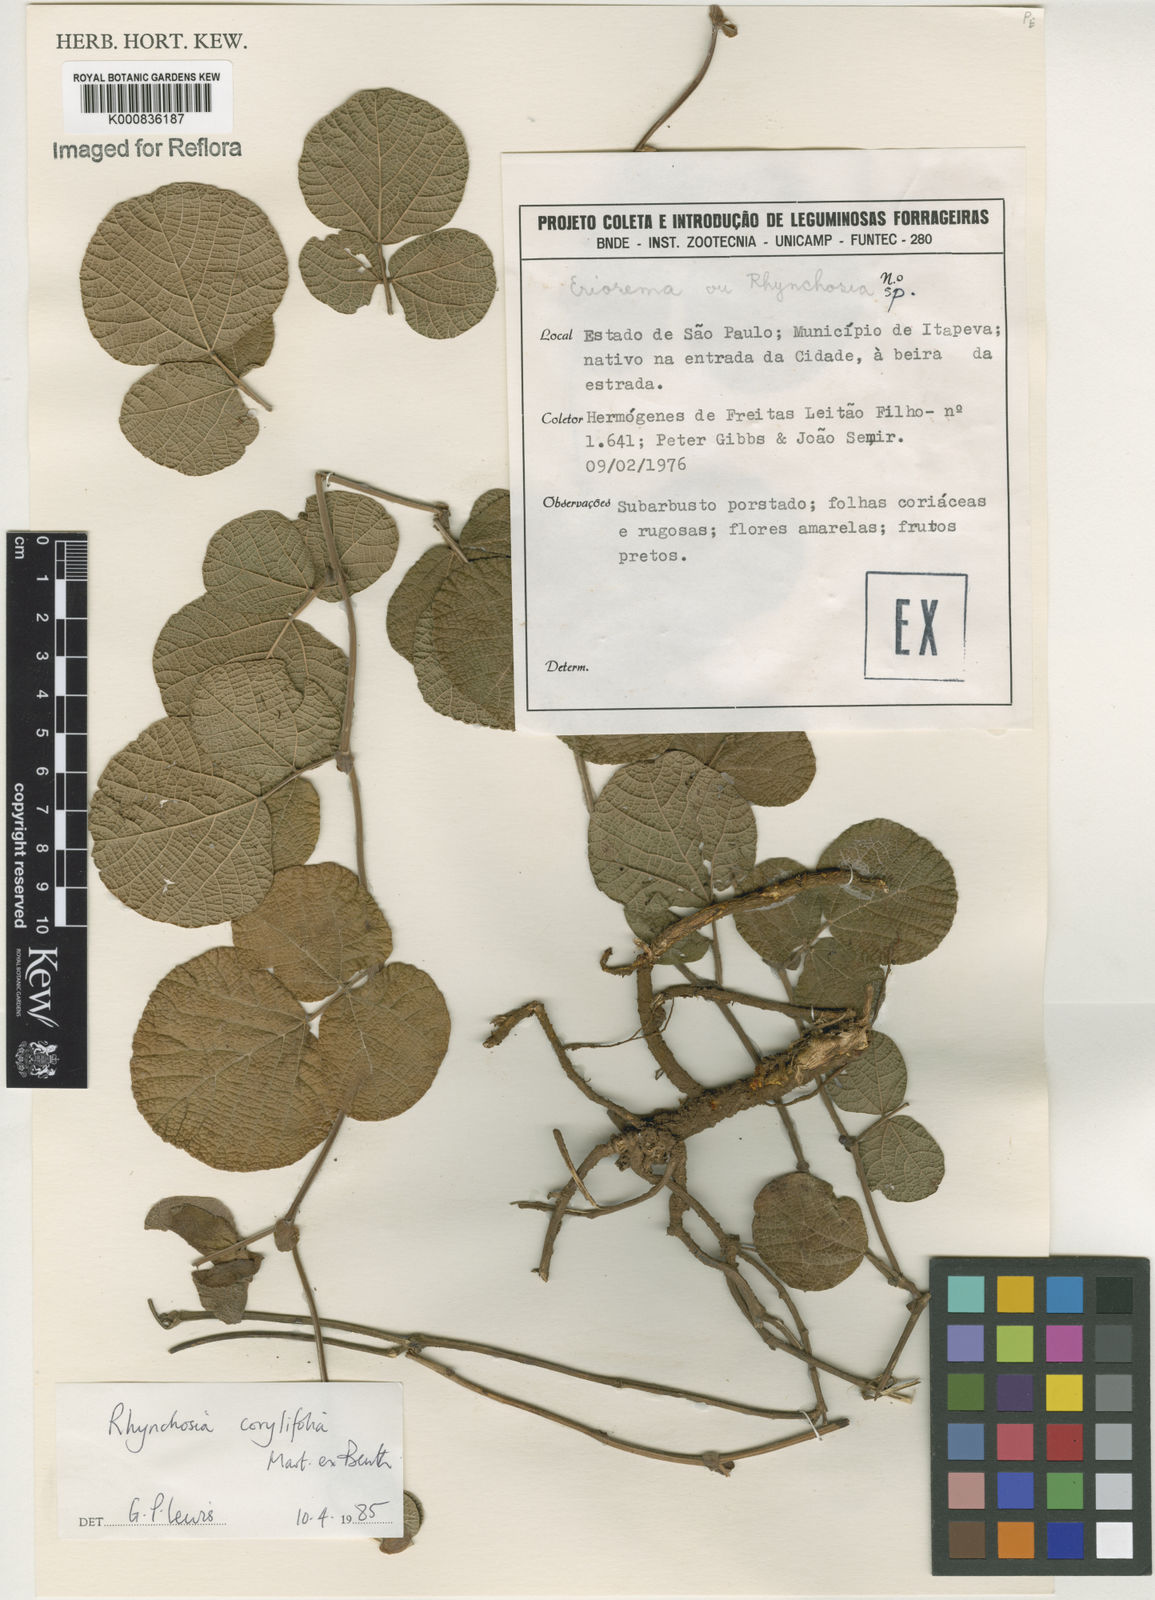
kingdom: Plantae
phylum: Tracheophyta
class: Magnoliopsida
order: Fabales
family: Fabaceae
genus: Rhynchosia
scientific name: Rhynchosia corylifolia
